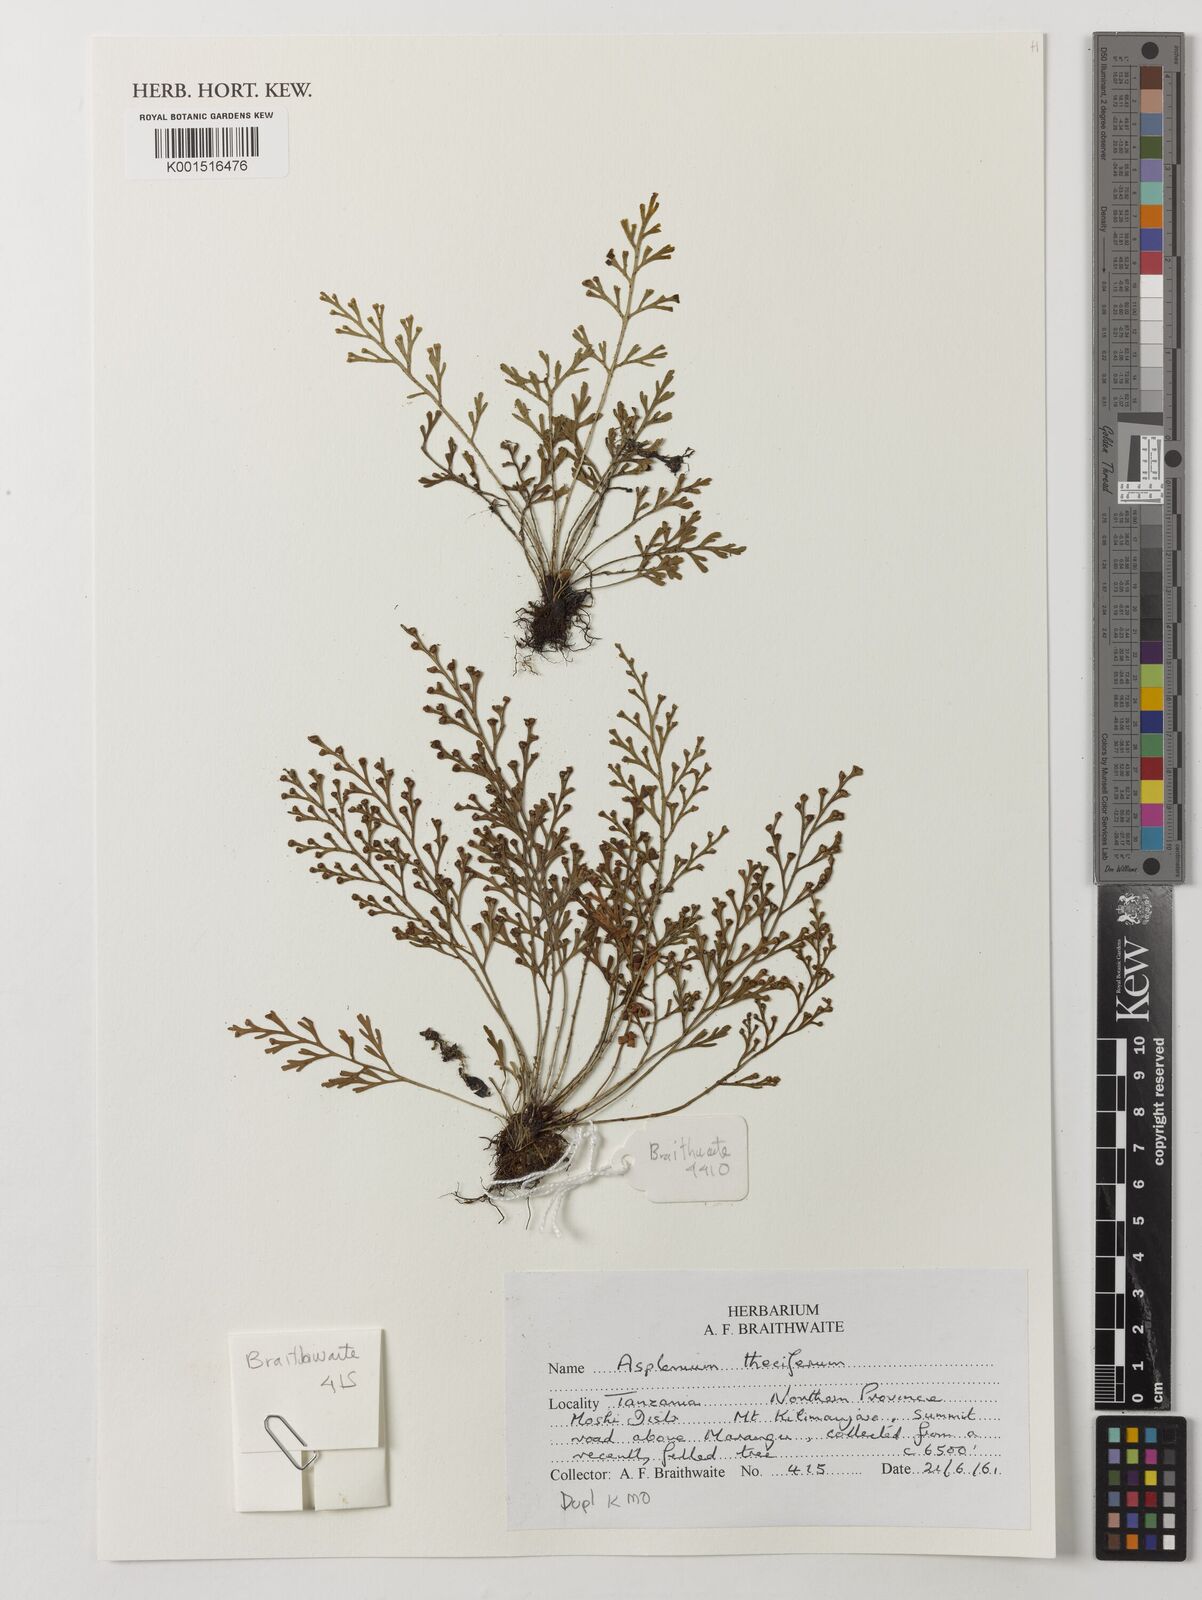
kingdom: Plantae
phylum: Tracheophyta
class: Polypodiopsida
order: Polypodiales
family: Aspleniaceae
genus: Asplenium
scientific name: Asplenium theciferum
